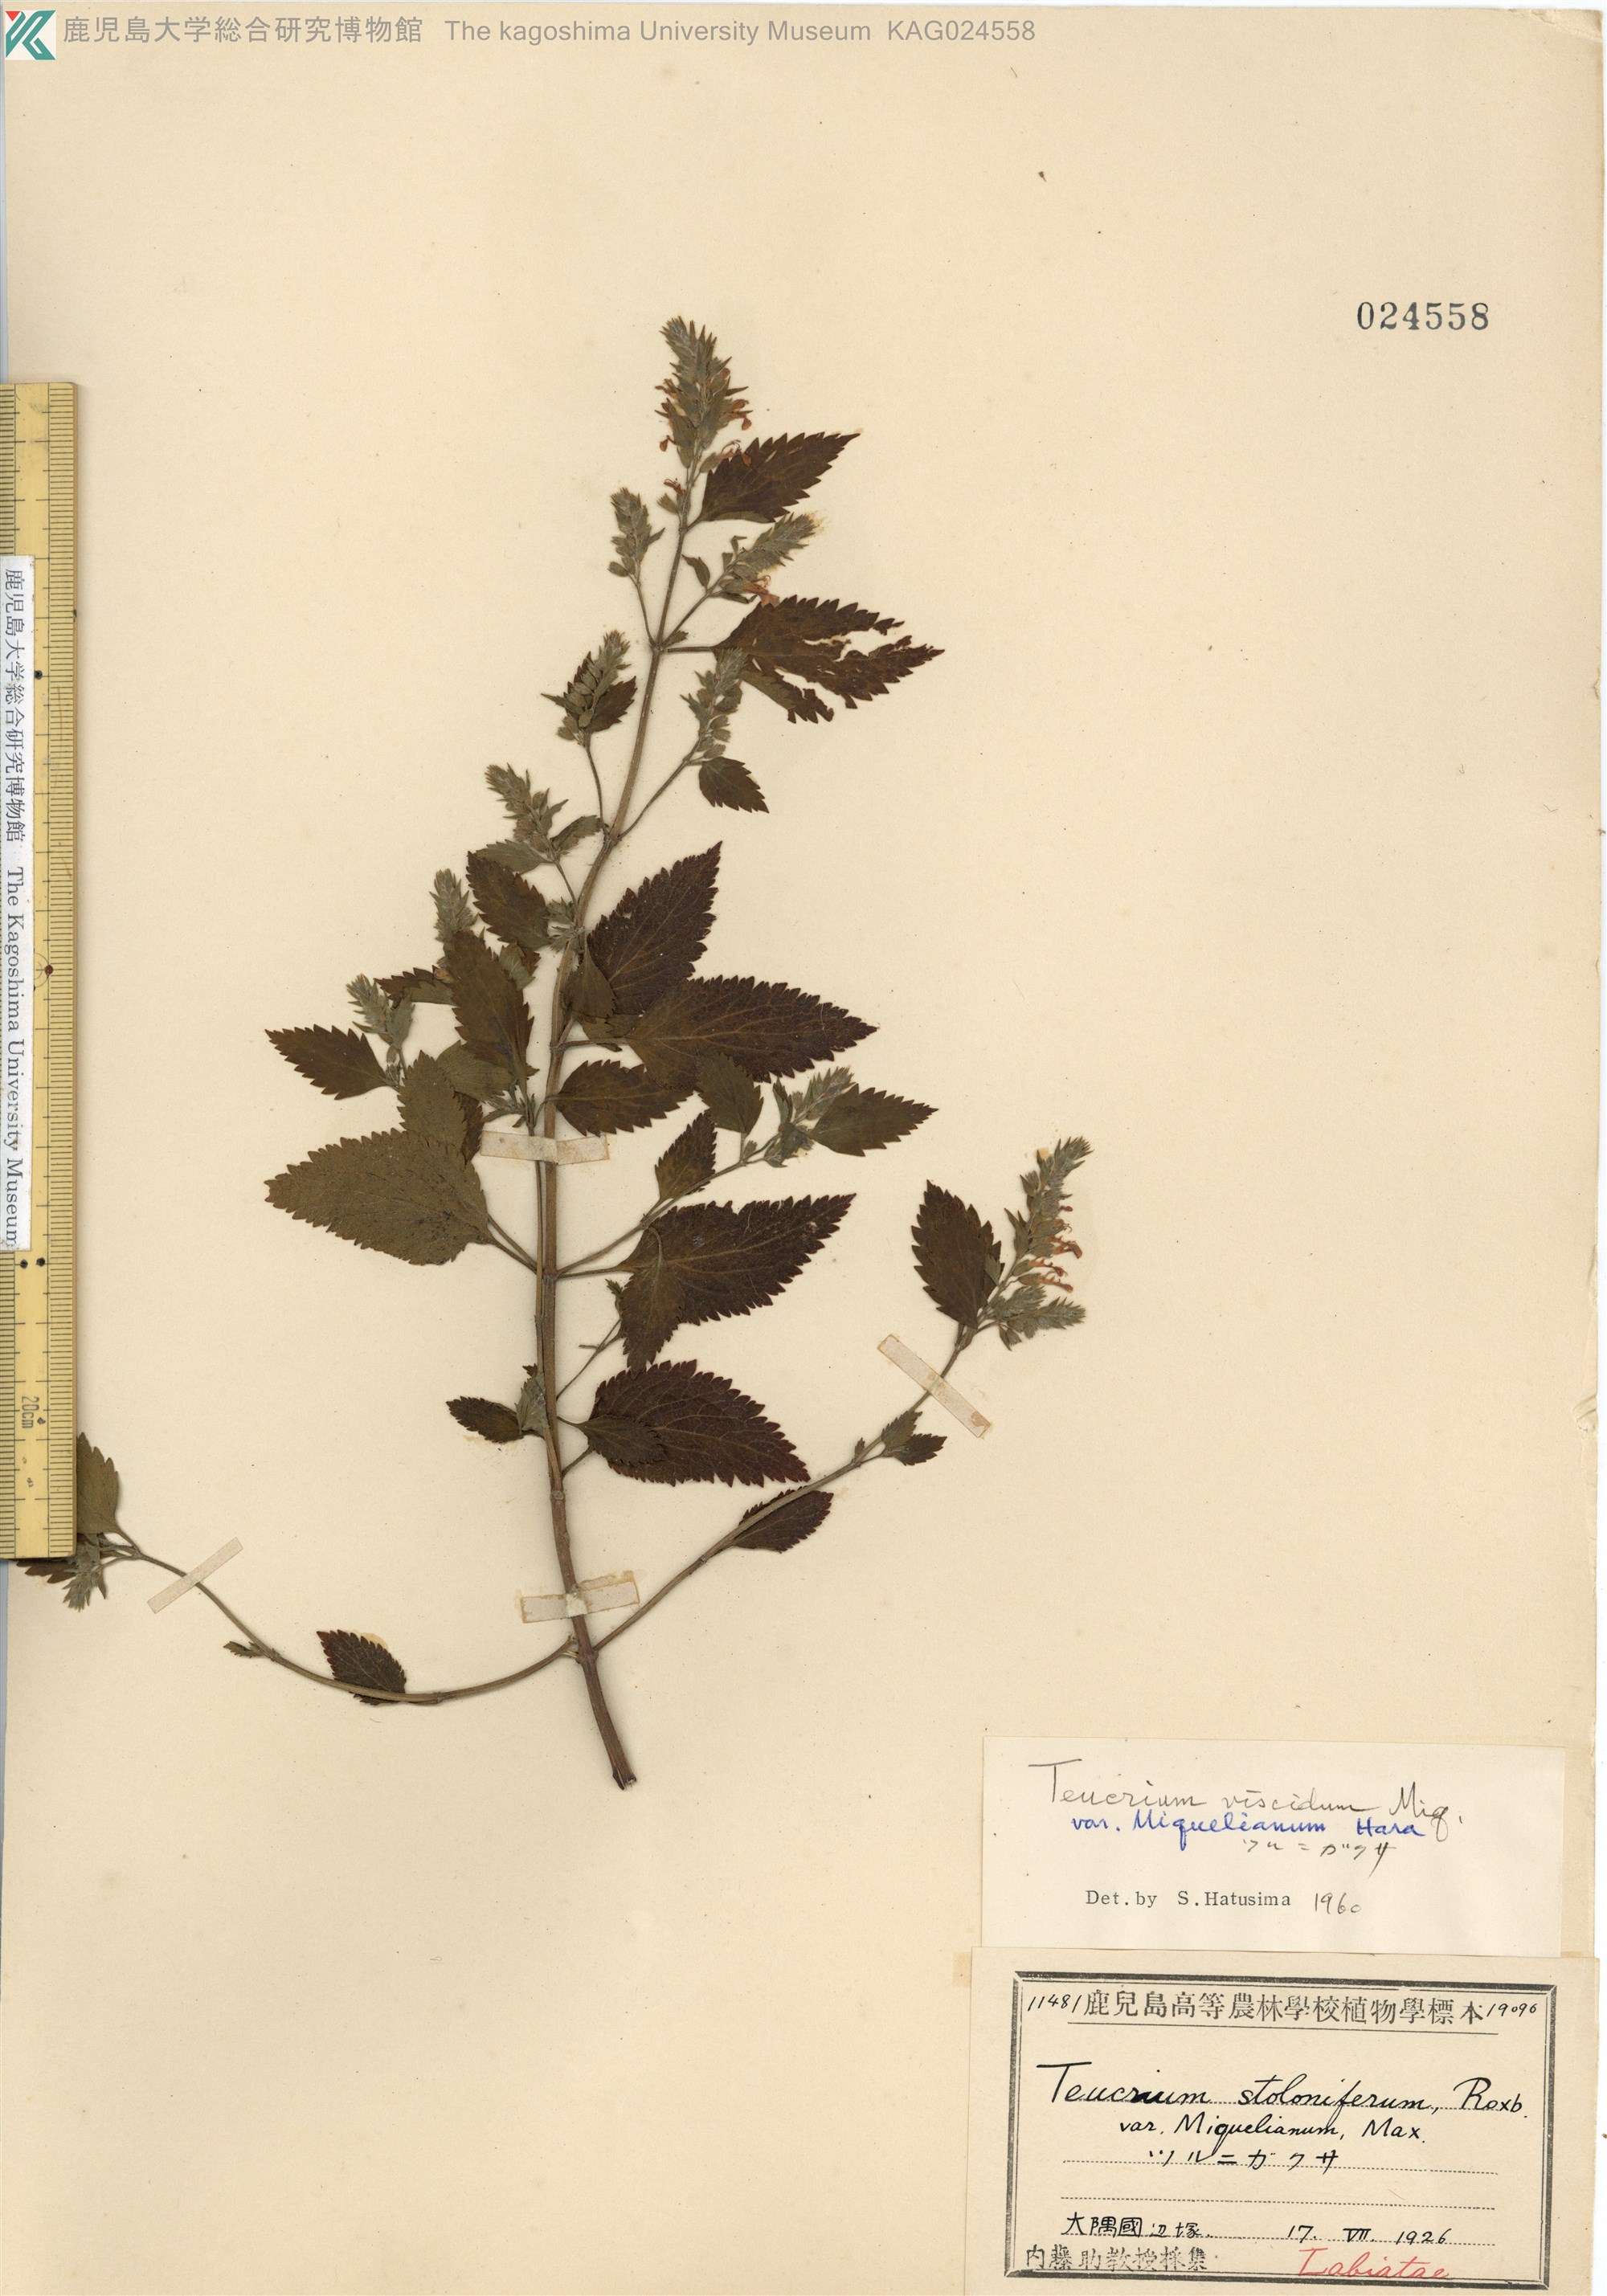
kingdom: Plantae
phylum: Tracheophyta
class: Magnoliopsida
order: Lamiales
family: Lamiaceae
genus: Teucrium
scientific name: Teucrium viscidum
